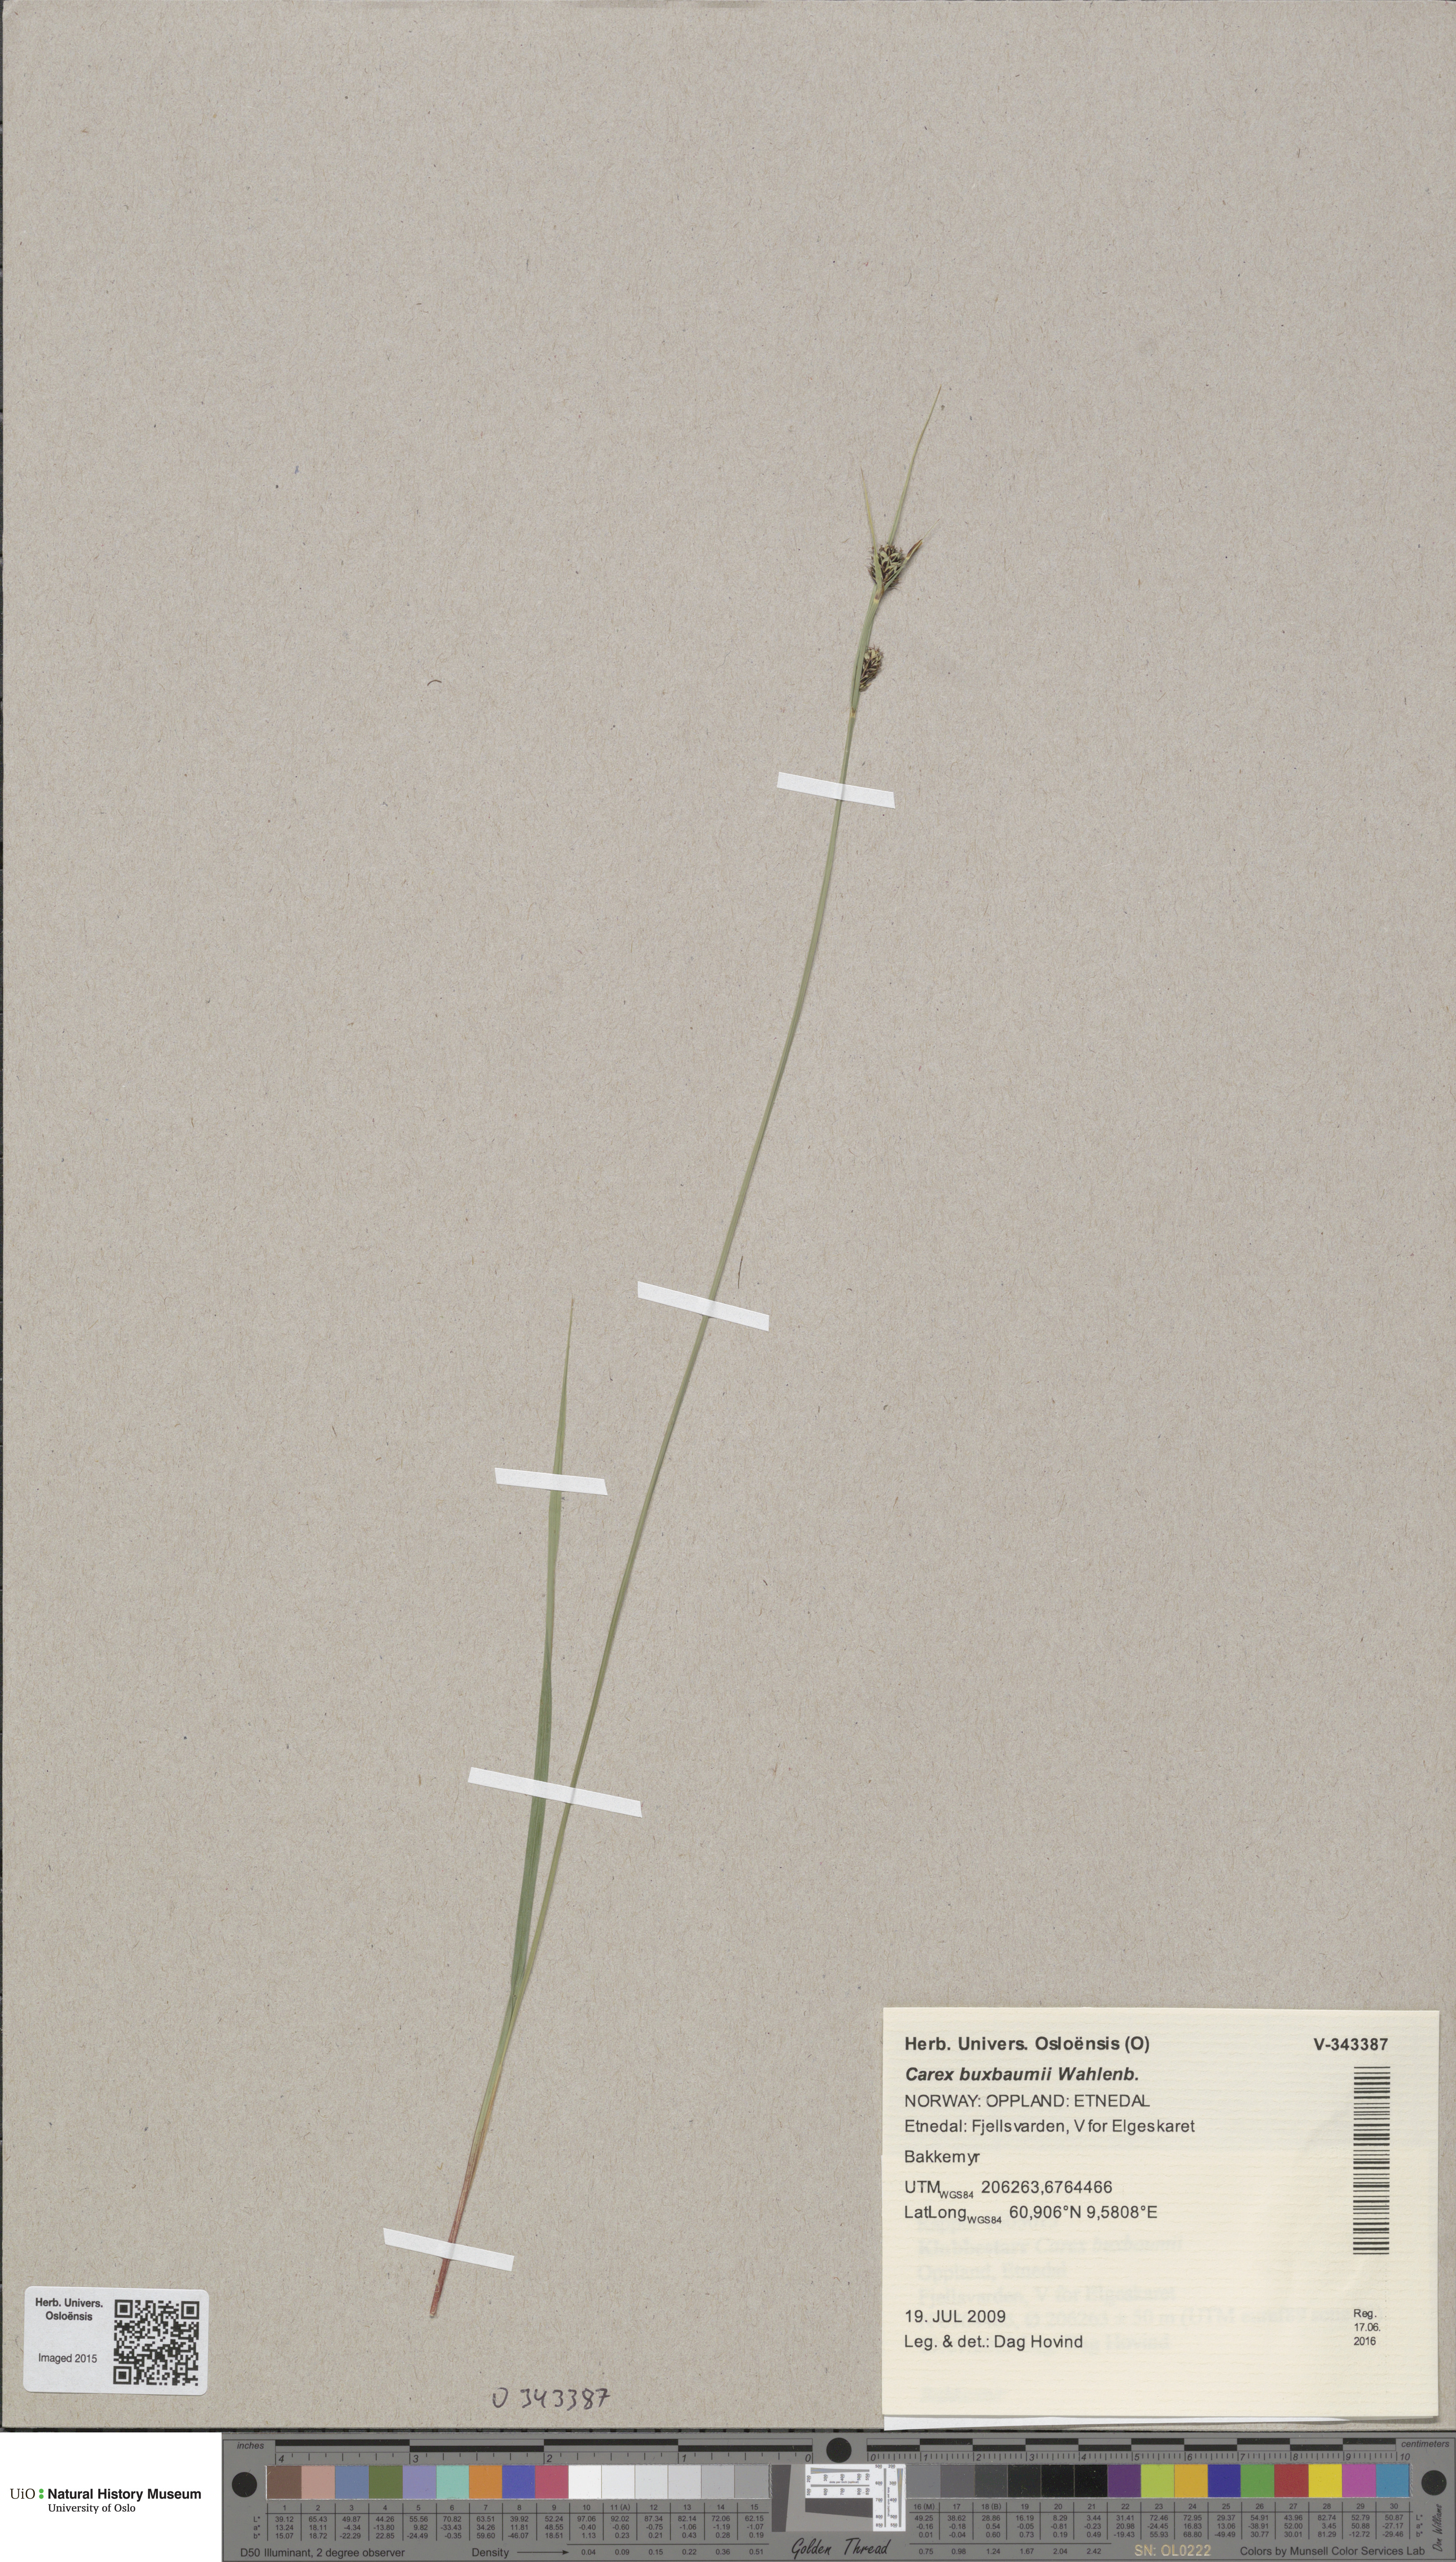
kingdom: Plantae
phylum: Tracheophyta
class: Liliopsida
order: Poales
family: Cyperaceae
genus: Carex
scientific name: Carex buxbaumii
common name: Club sedge
